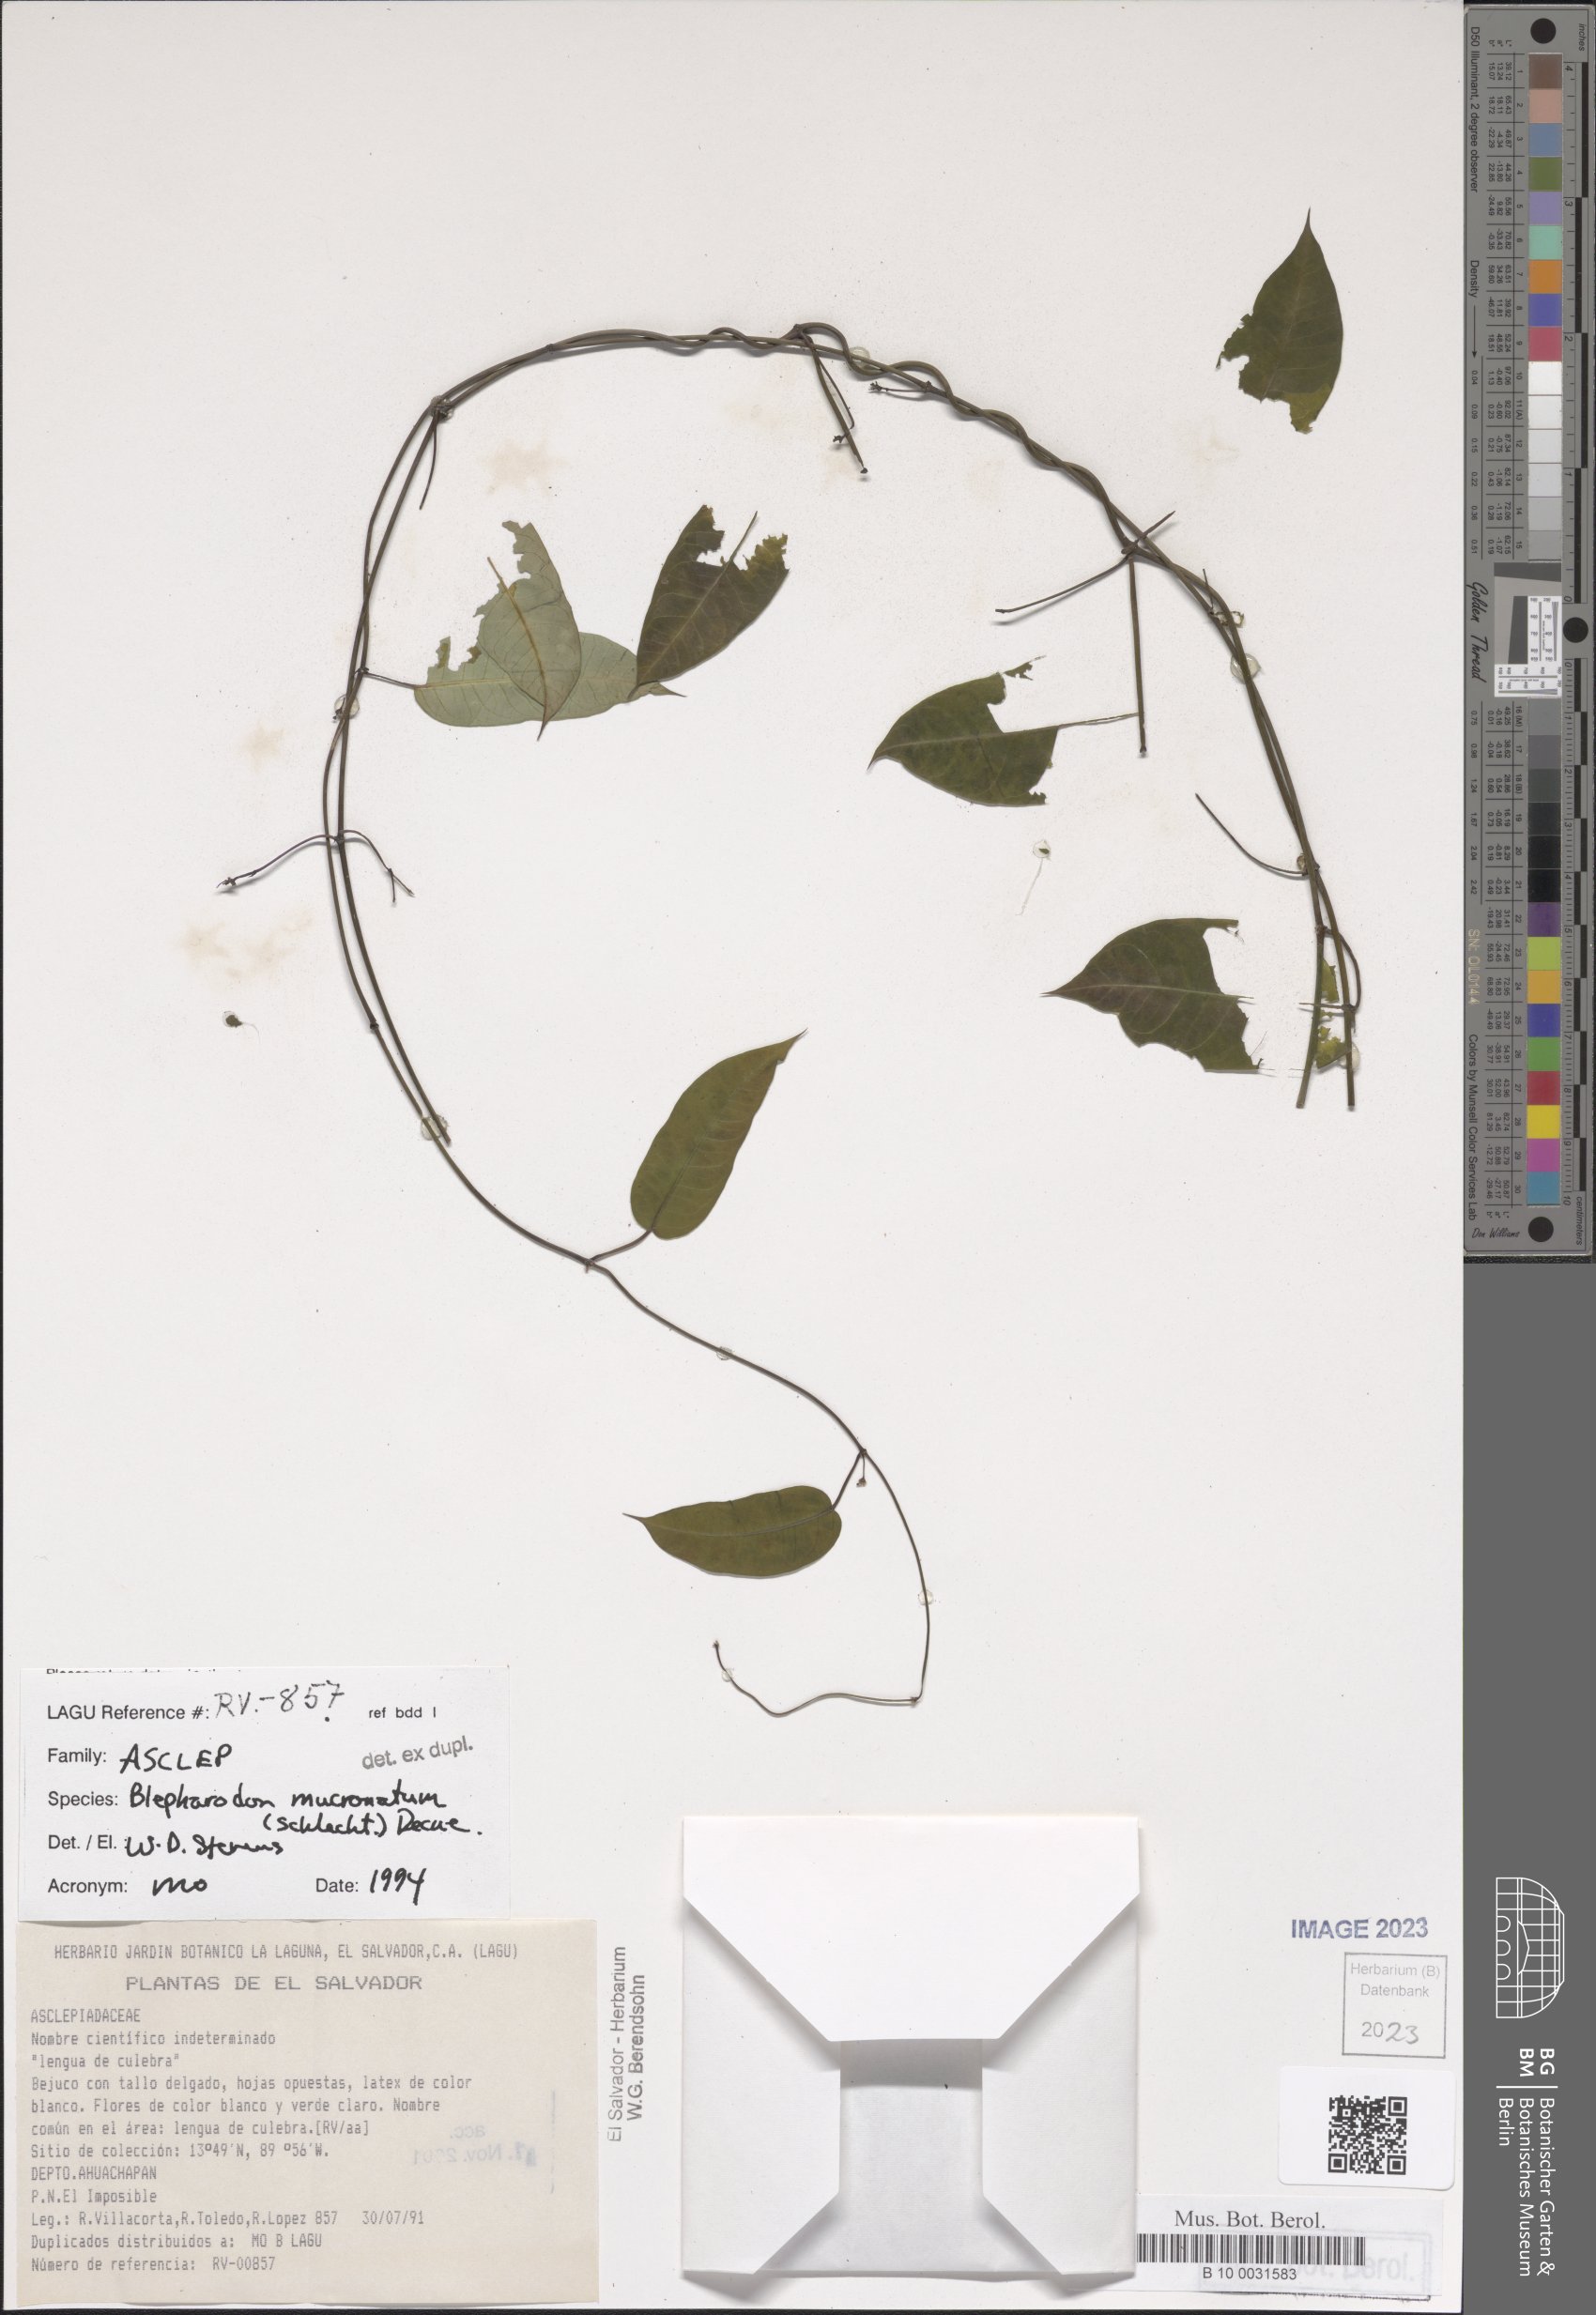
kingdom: Plantae
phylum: Tracheophyta
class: Magnoliopsida
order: Gentianales
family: Apocynaceae
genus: Vailia
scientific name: Vailia anomala
